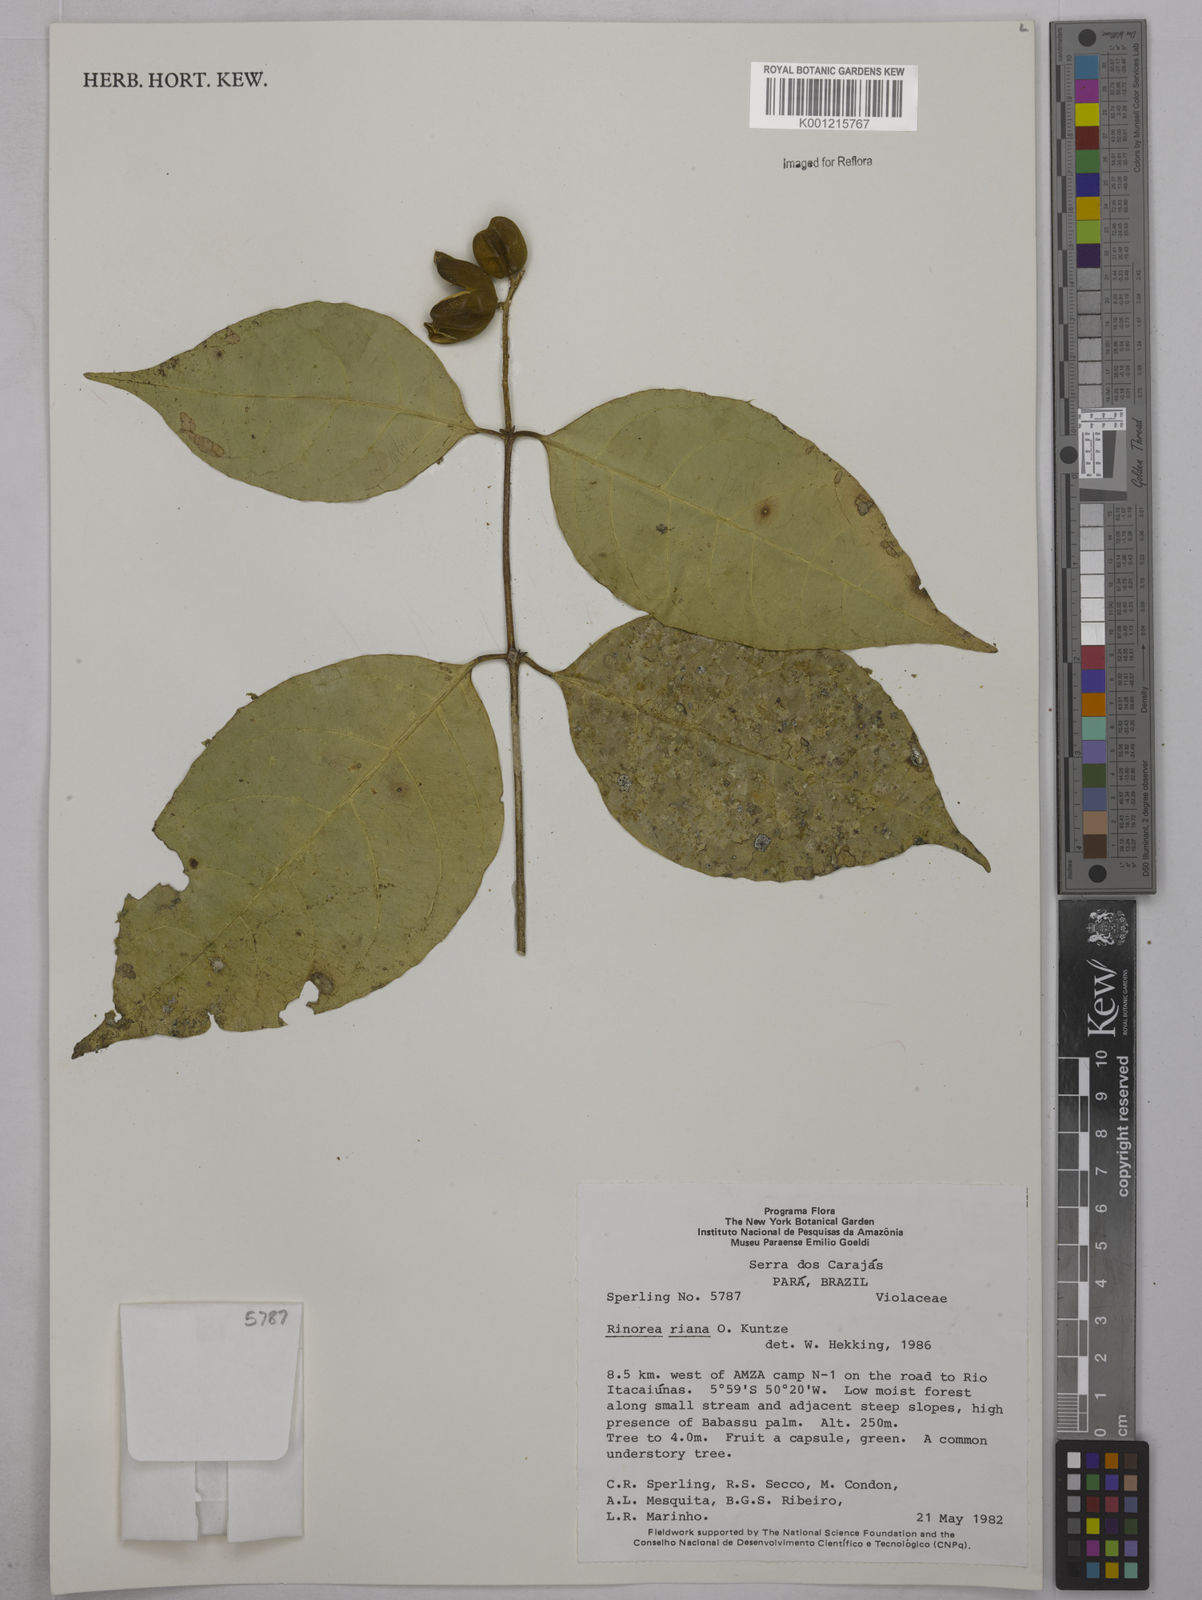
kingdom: Plantae
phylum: Tracheophyta
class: Magnoliopsida
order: Malpighiales
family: Violaceae
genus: Rinorea
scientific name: Rinorea riana
